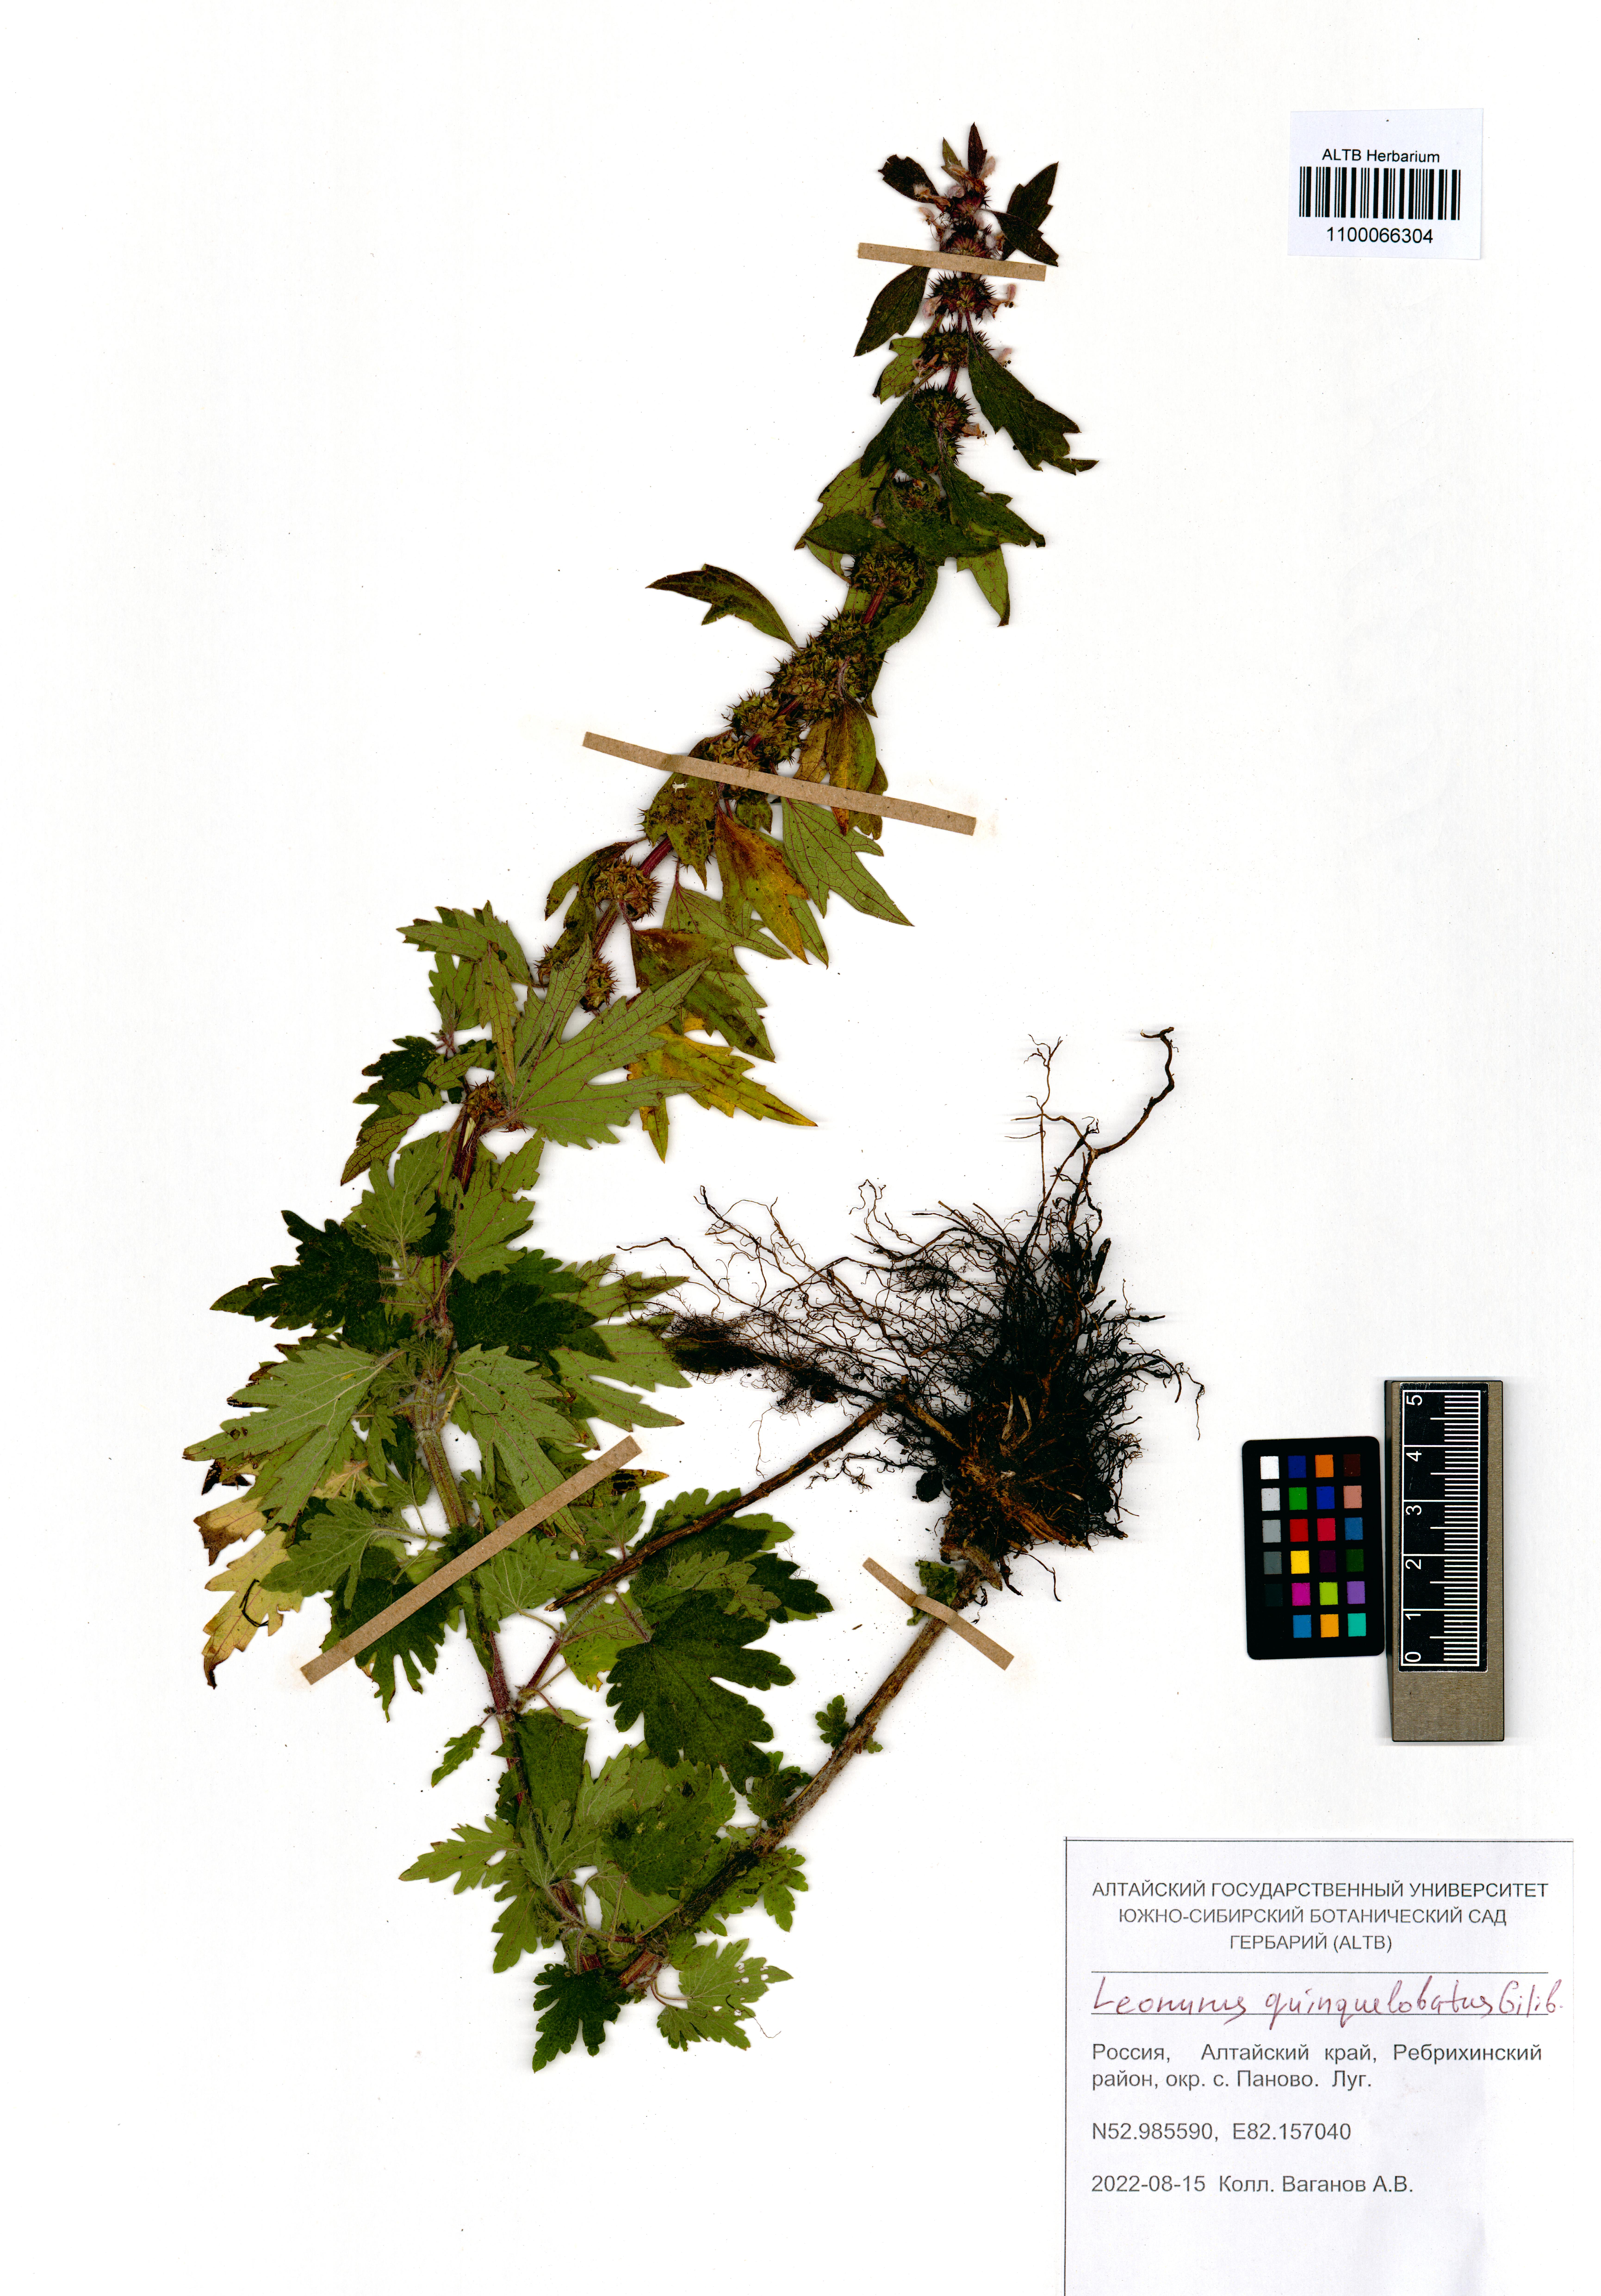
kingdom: Plantae
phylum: Tracheophyta
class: Magnoliopsida
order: Lamiales
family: Lamiaceae
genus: Leonurus
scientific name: Leonurus quinquelobatus
